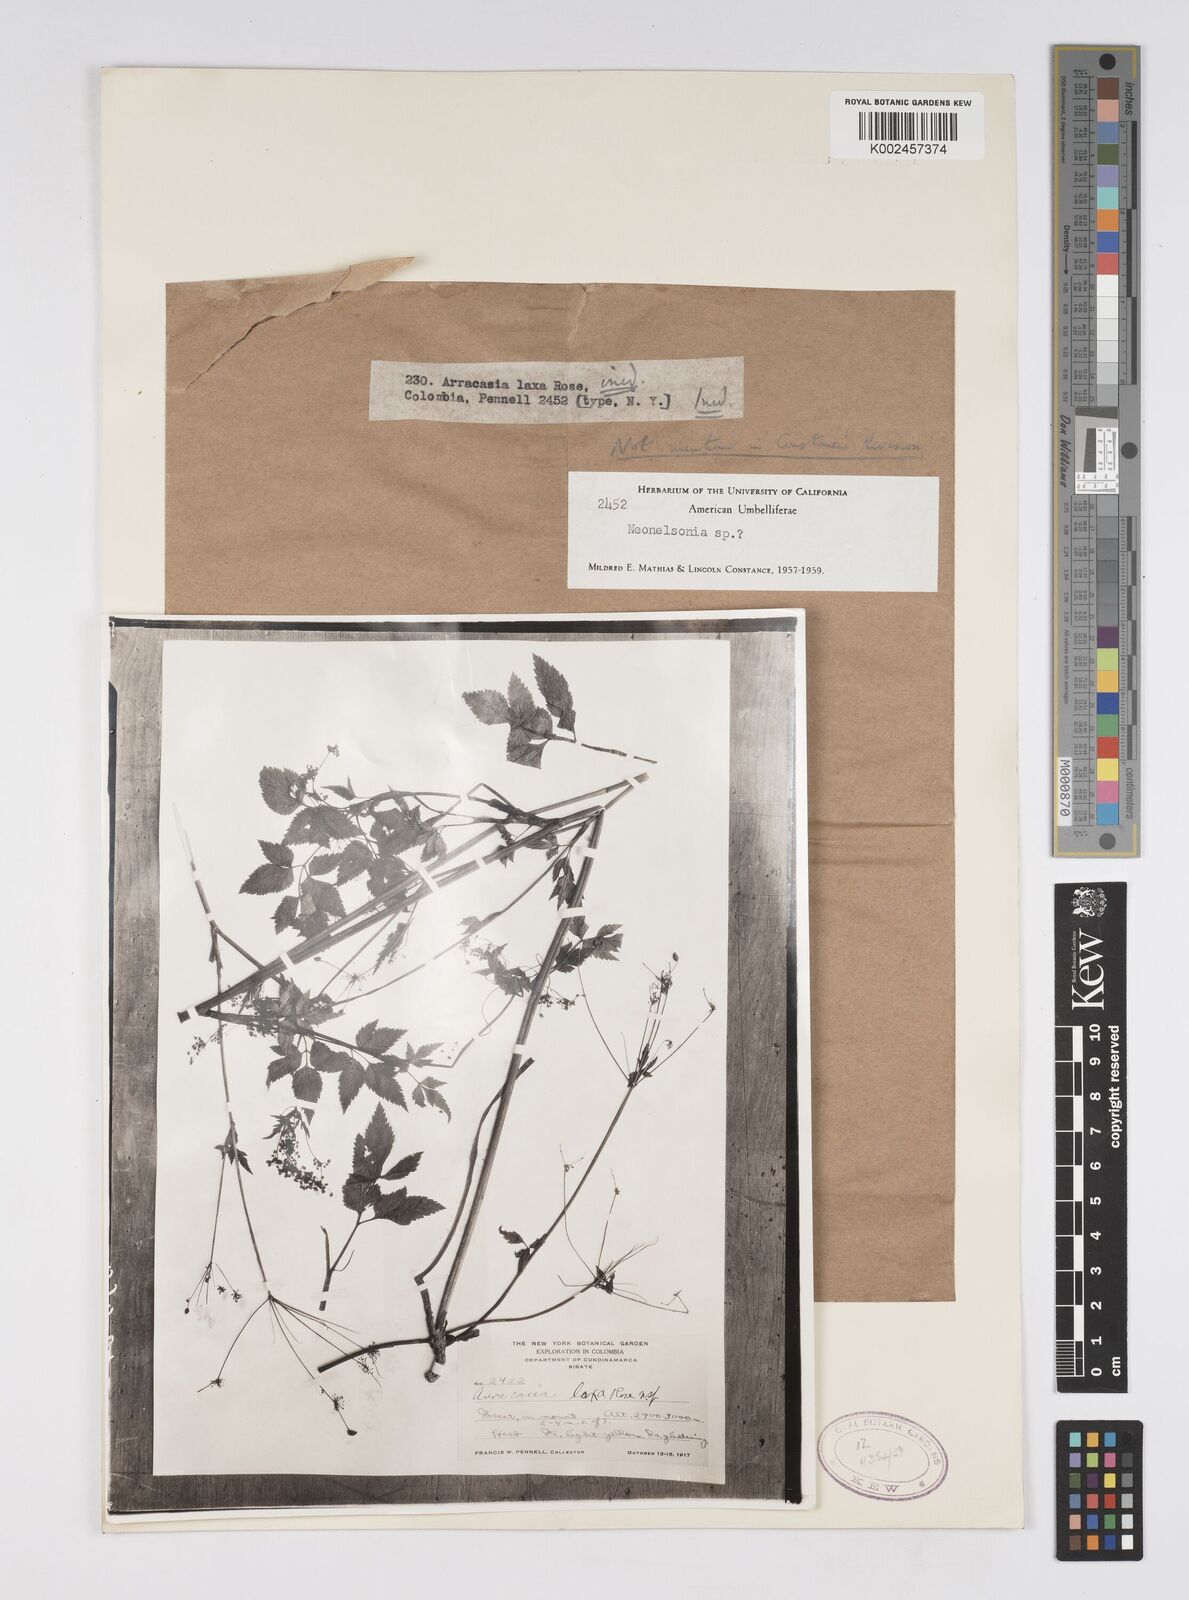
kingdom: Plantae
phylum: Tracheophyta
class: Magnoliopsida
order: Apiales
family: Apiaceae
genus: Neonelsonia
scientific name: Neonelsonia
